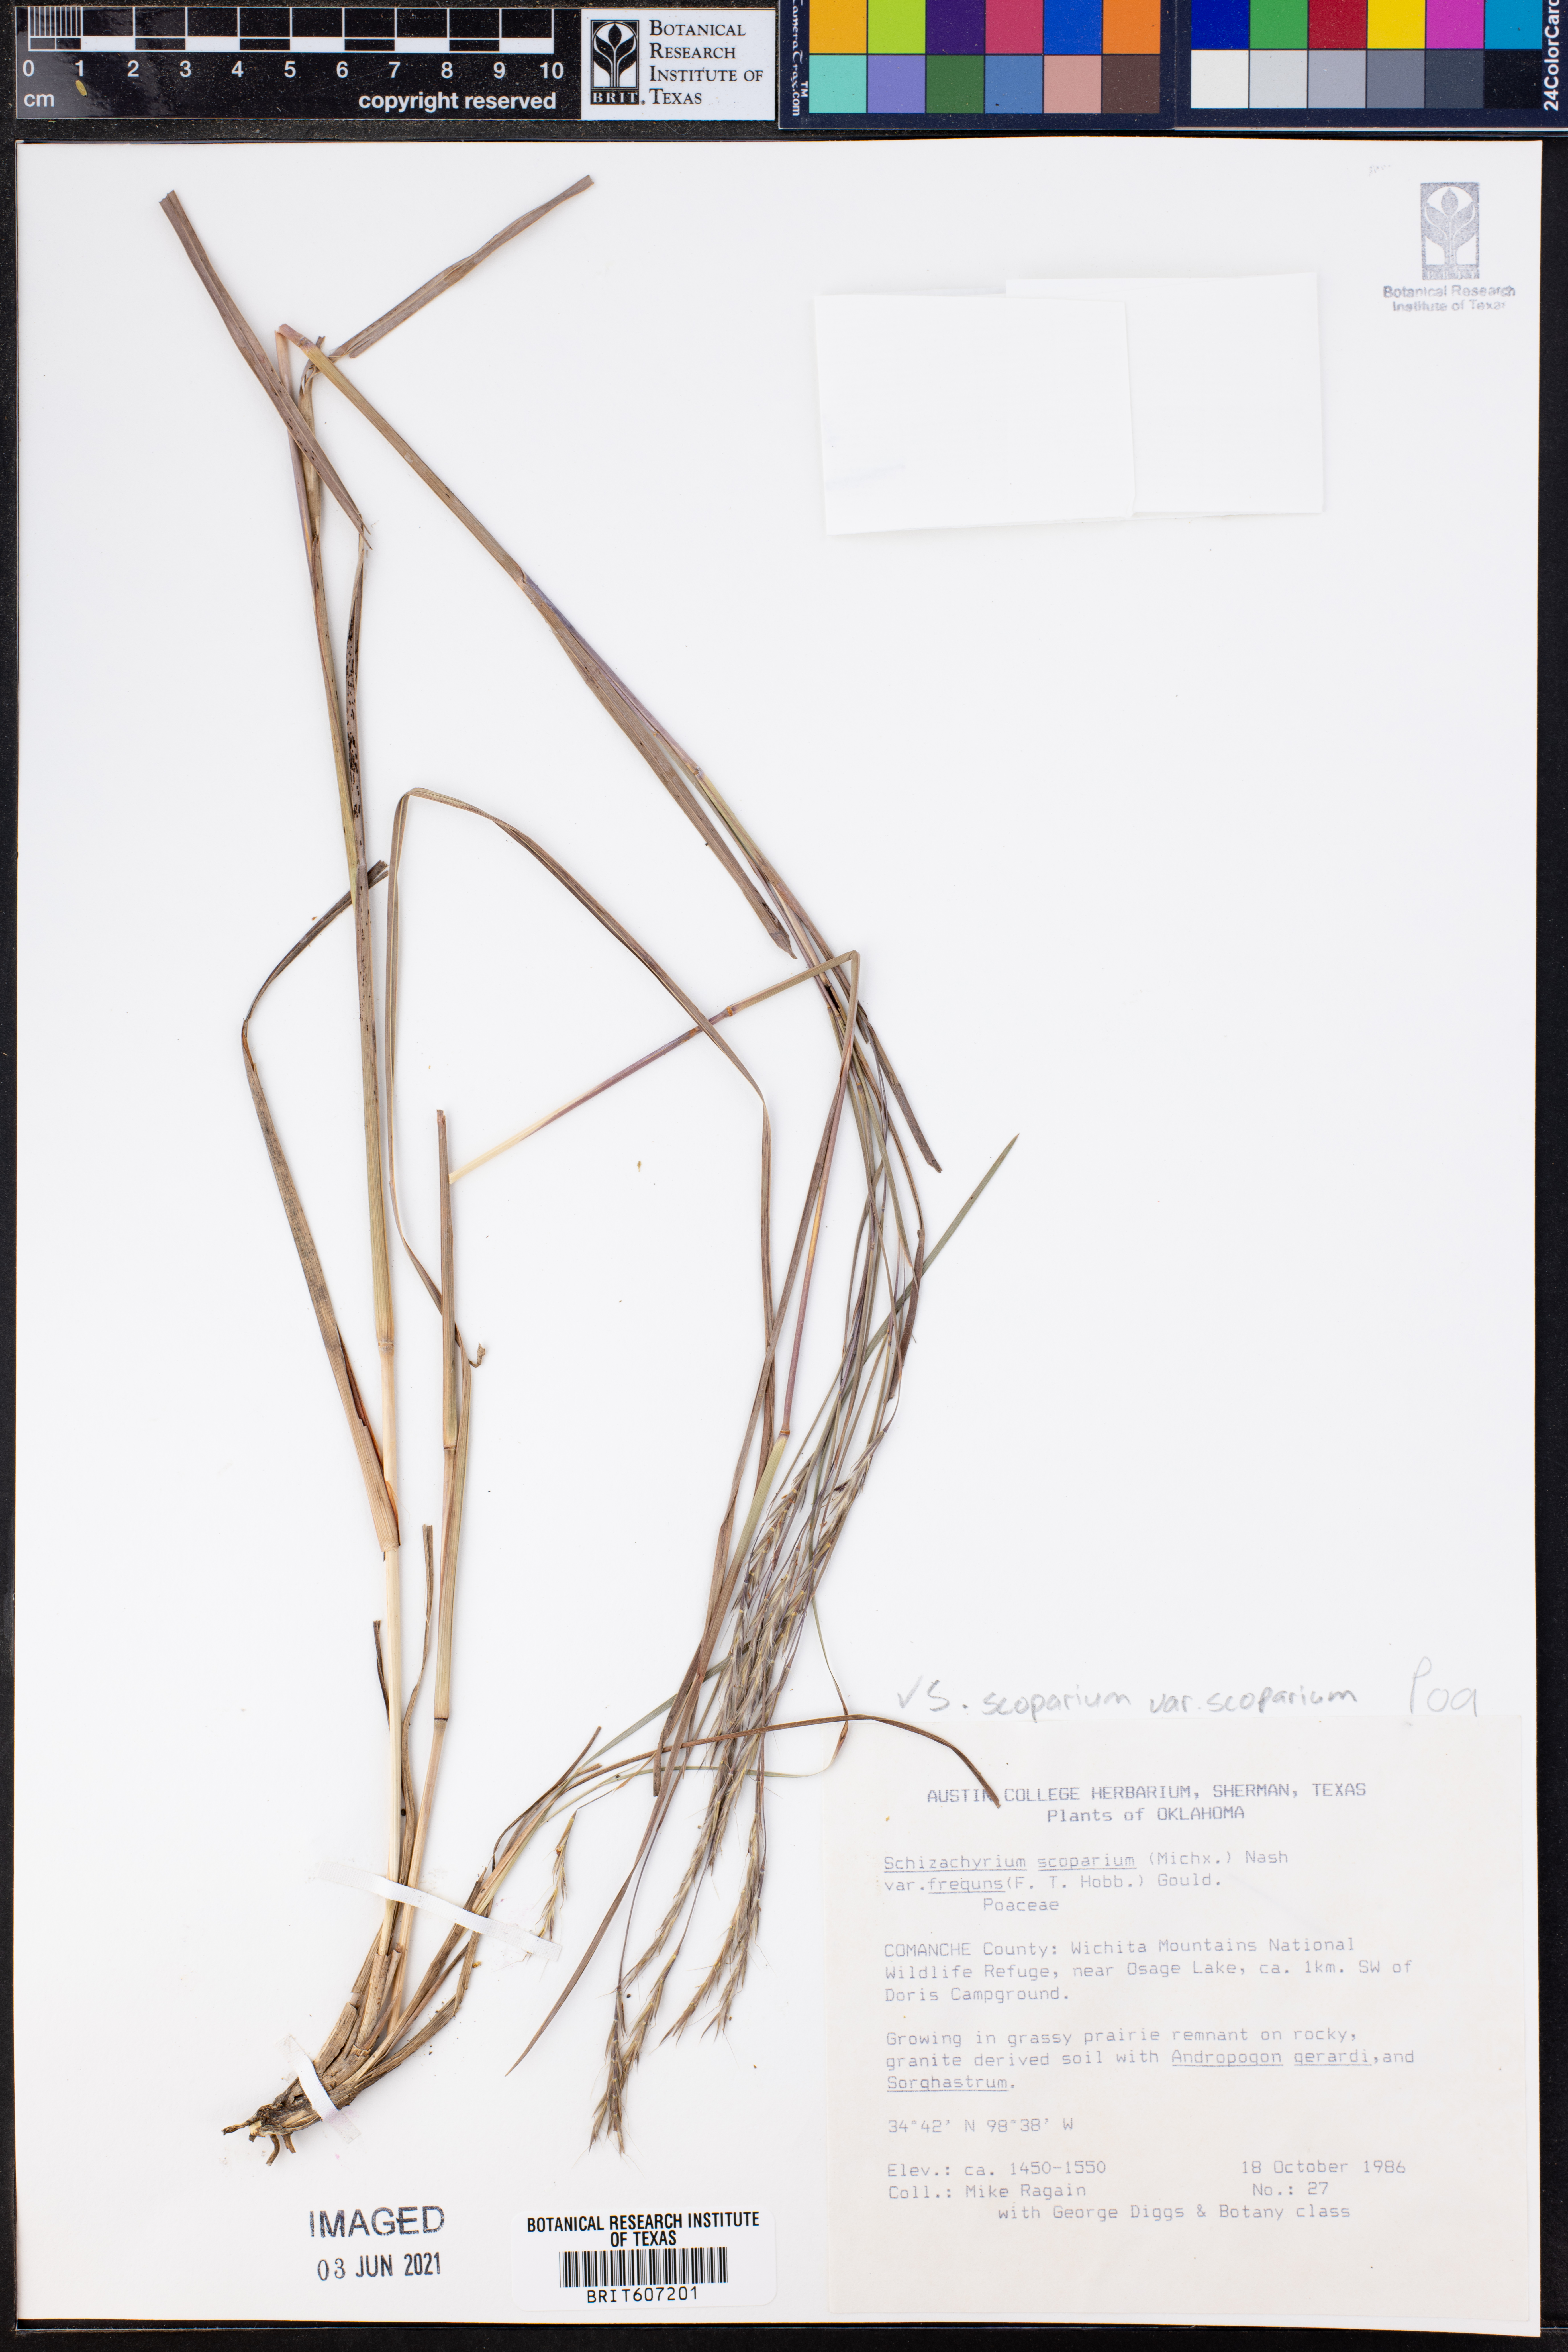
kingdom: Plantae
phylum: Tracheophyta
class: Liliopsida
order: Poales
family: Poaceae
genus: Schizachyrium
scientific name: Schizachyrium scoparium
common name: Little bluestem
